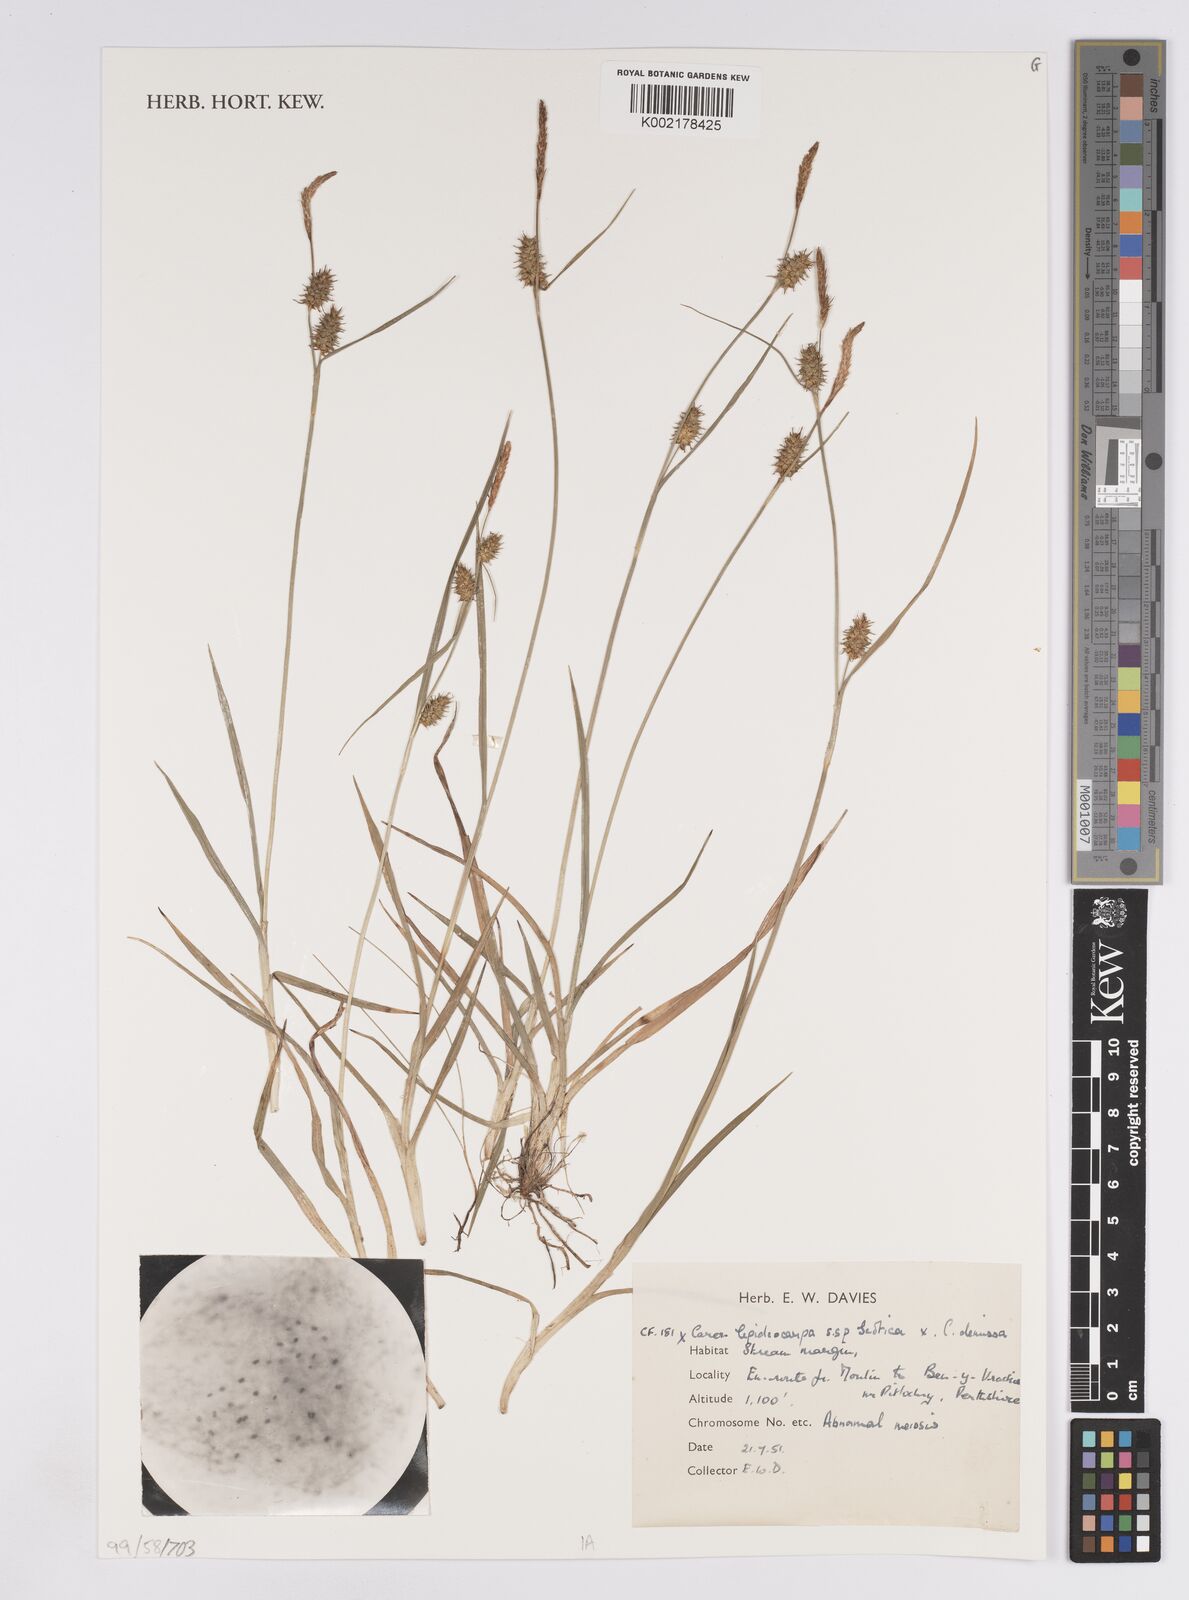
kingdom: Plantae
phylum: Tracheophyta
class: Liliopsida
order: Poales
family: Cyperaceae
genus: Carex
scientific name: Carex lepidocarpa
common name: Long-stalked yellow-sedge
